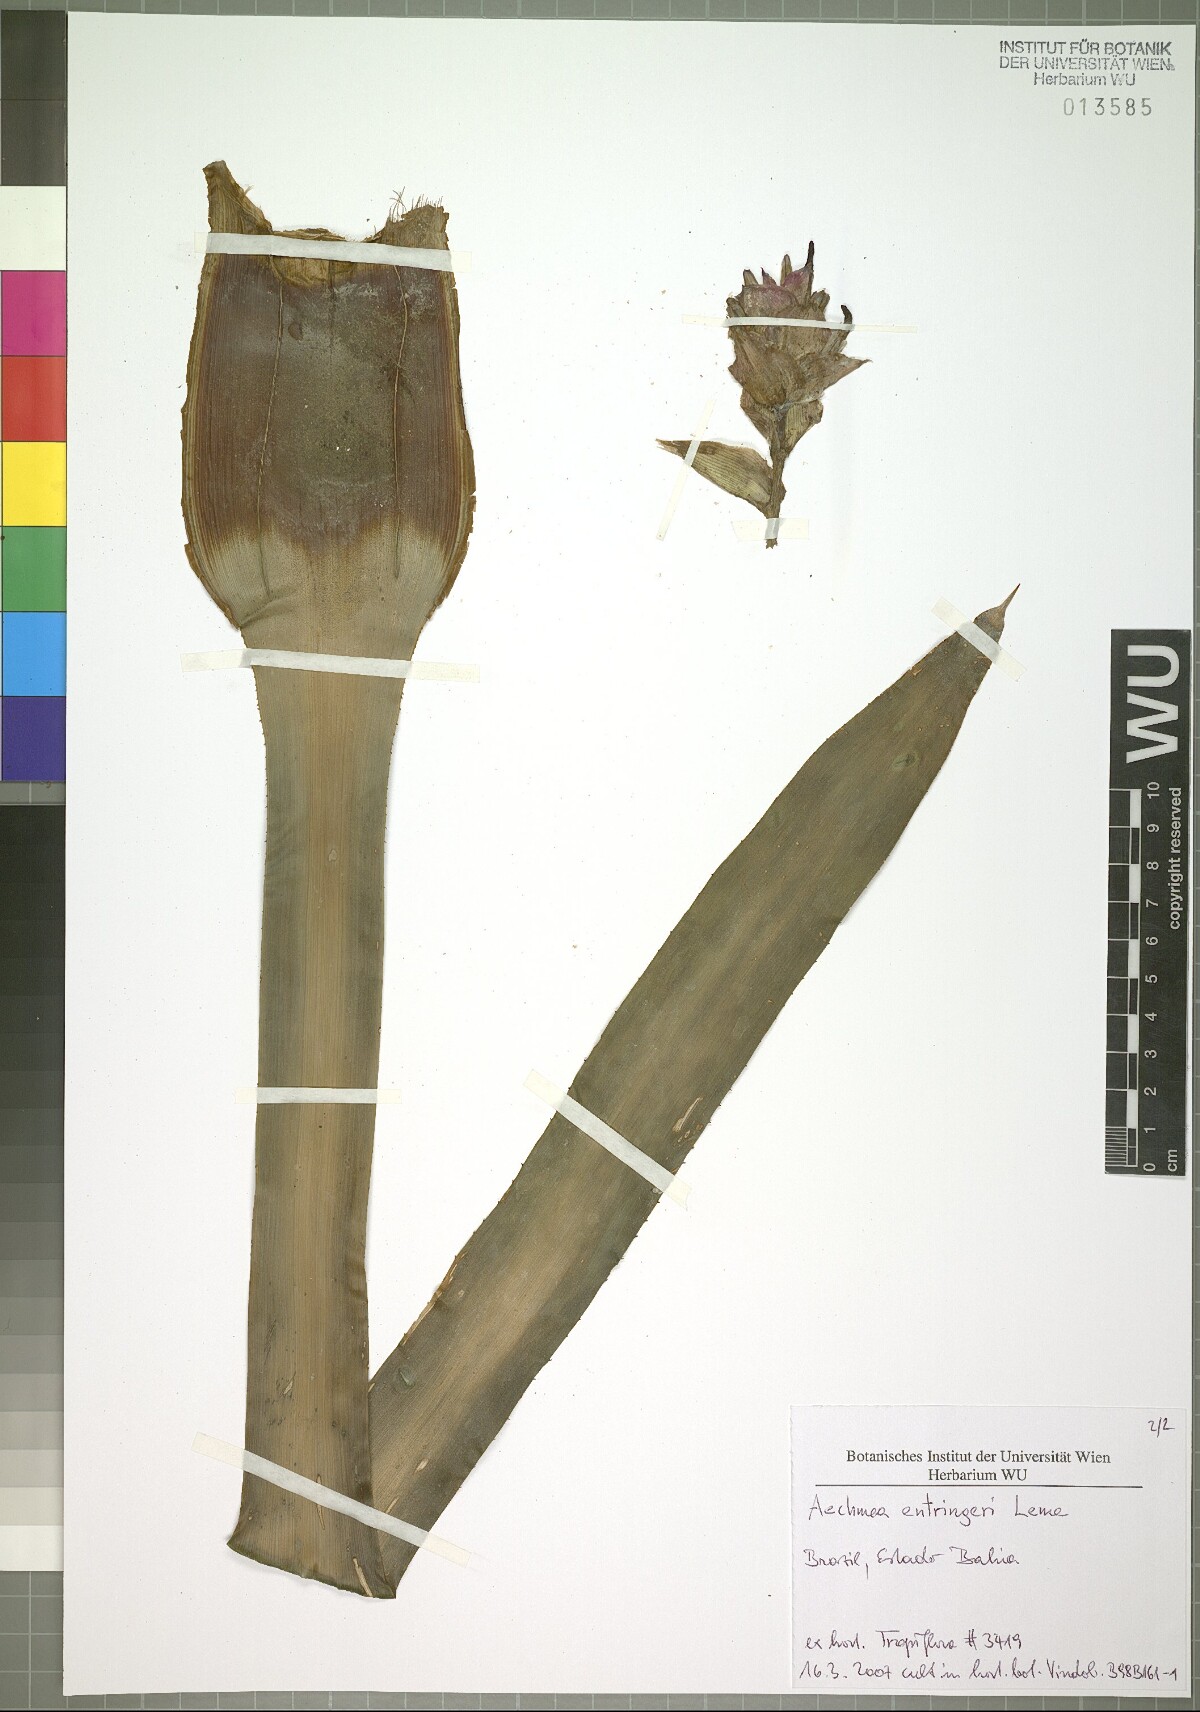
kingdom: Plantae
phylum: Tracheophyta
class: Liliopsida
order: Poales
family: Bromeliaceae
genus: Aechmea
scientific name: Aechmea entringeri
